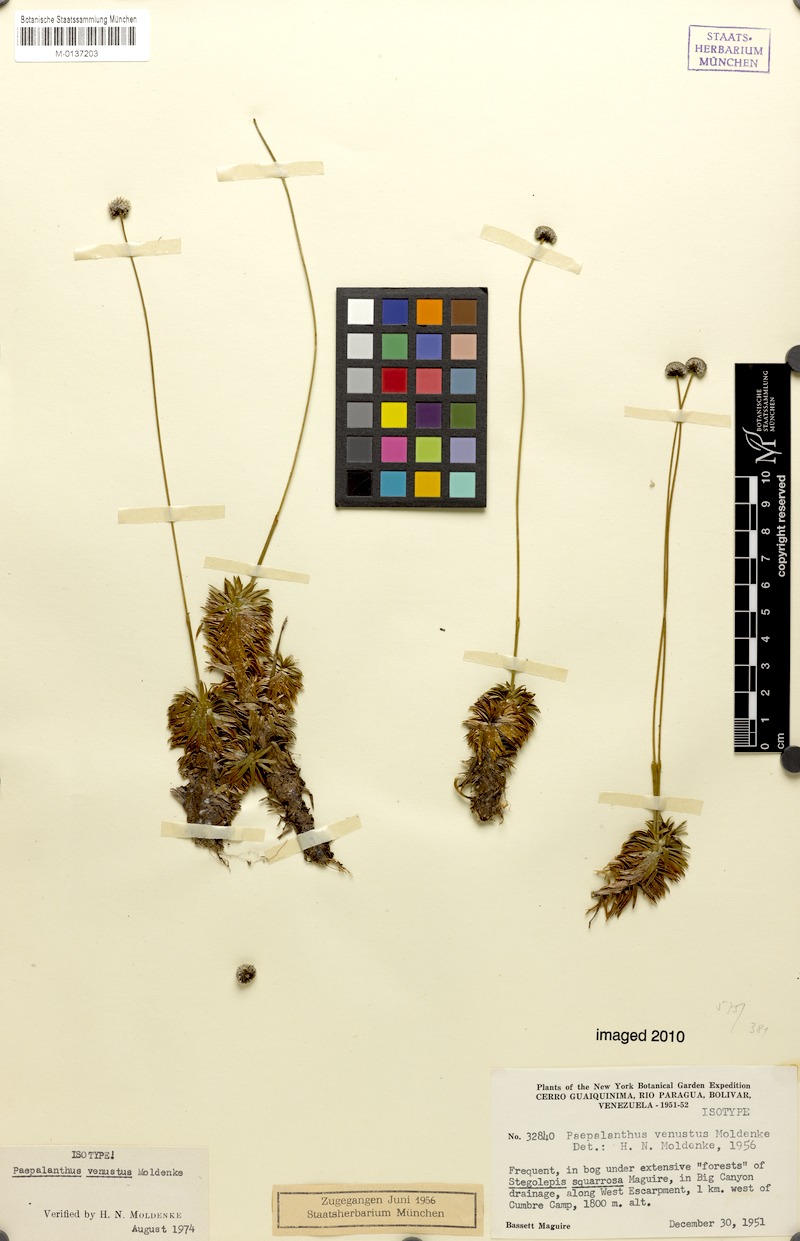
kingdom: Plantae
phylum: Tracheophyta
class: Liliopsida
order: Poales
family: Eriocaulaceae
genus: Paepalanthus
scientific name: Paepalanthus venustus
